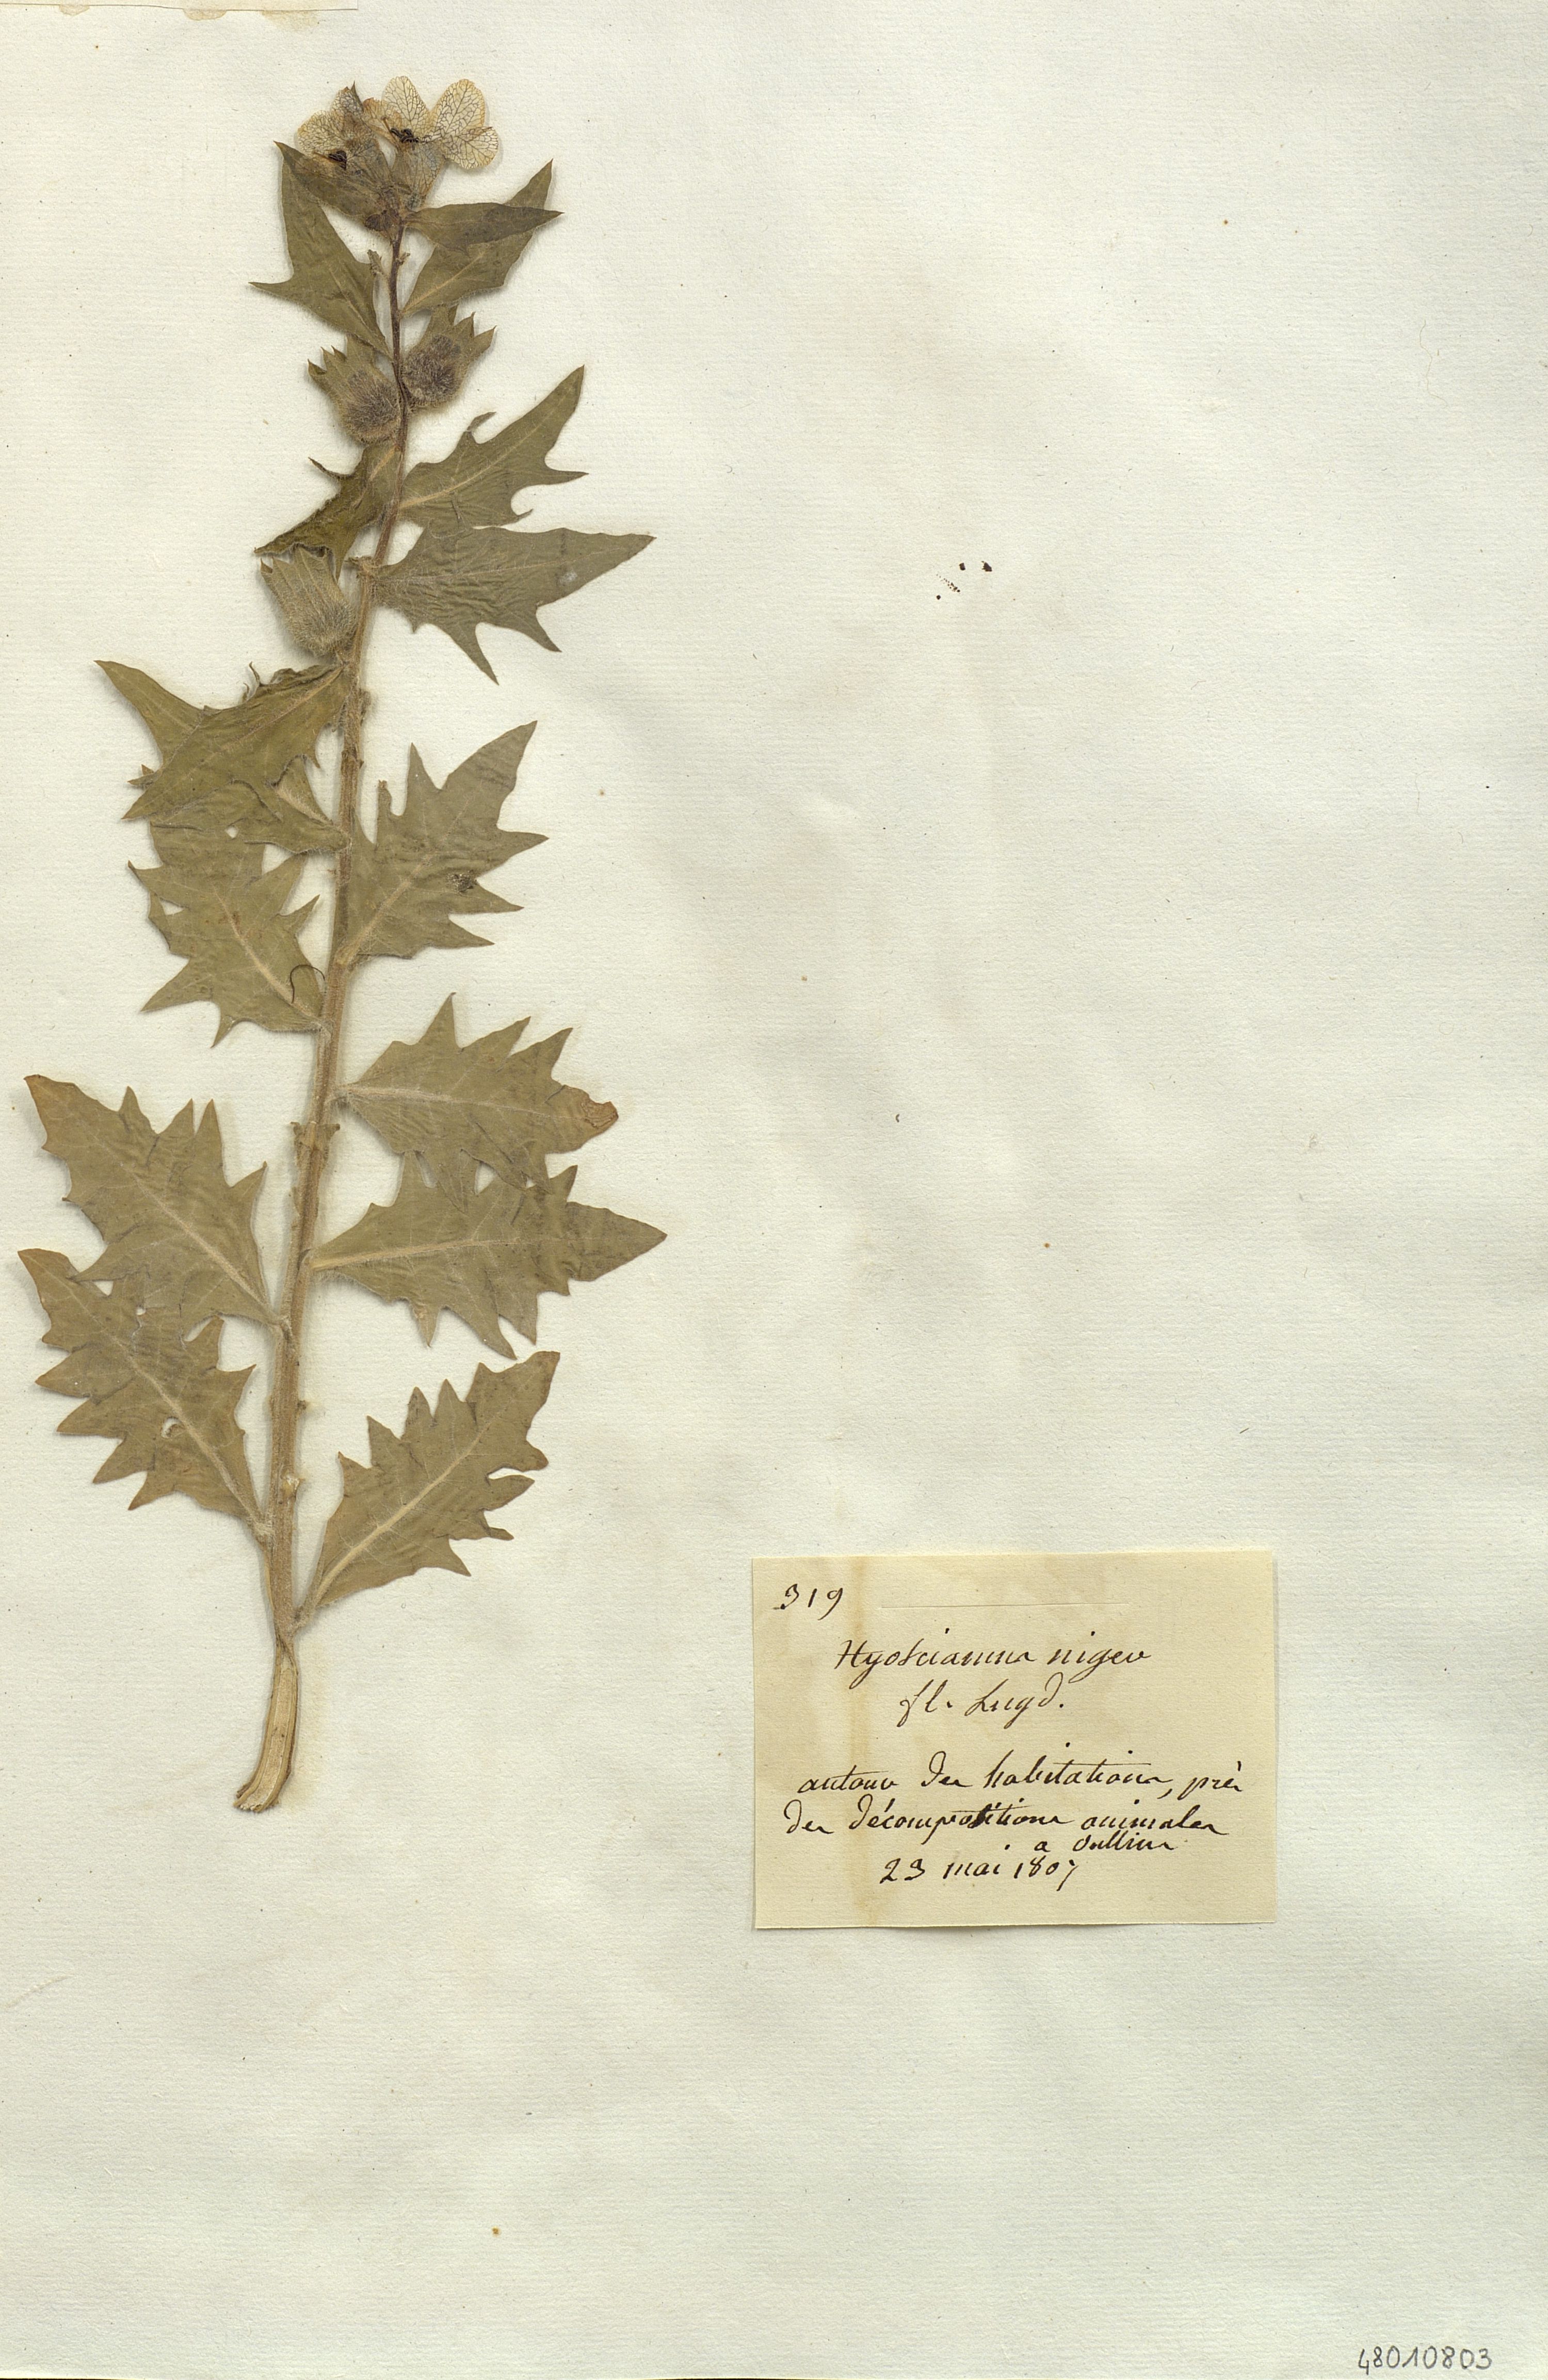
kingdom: Plantae
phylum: Tracheophyta
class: Magnoliopsida
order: Solanales
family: Solanaceae
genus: Hyosciamus
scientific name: Hyosciamus niger
